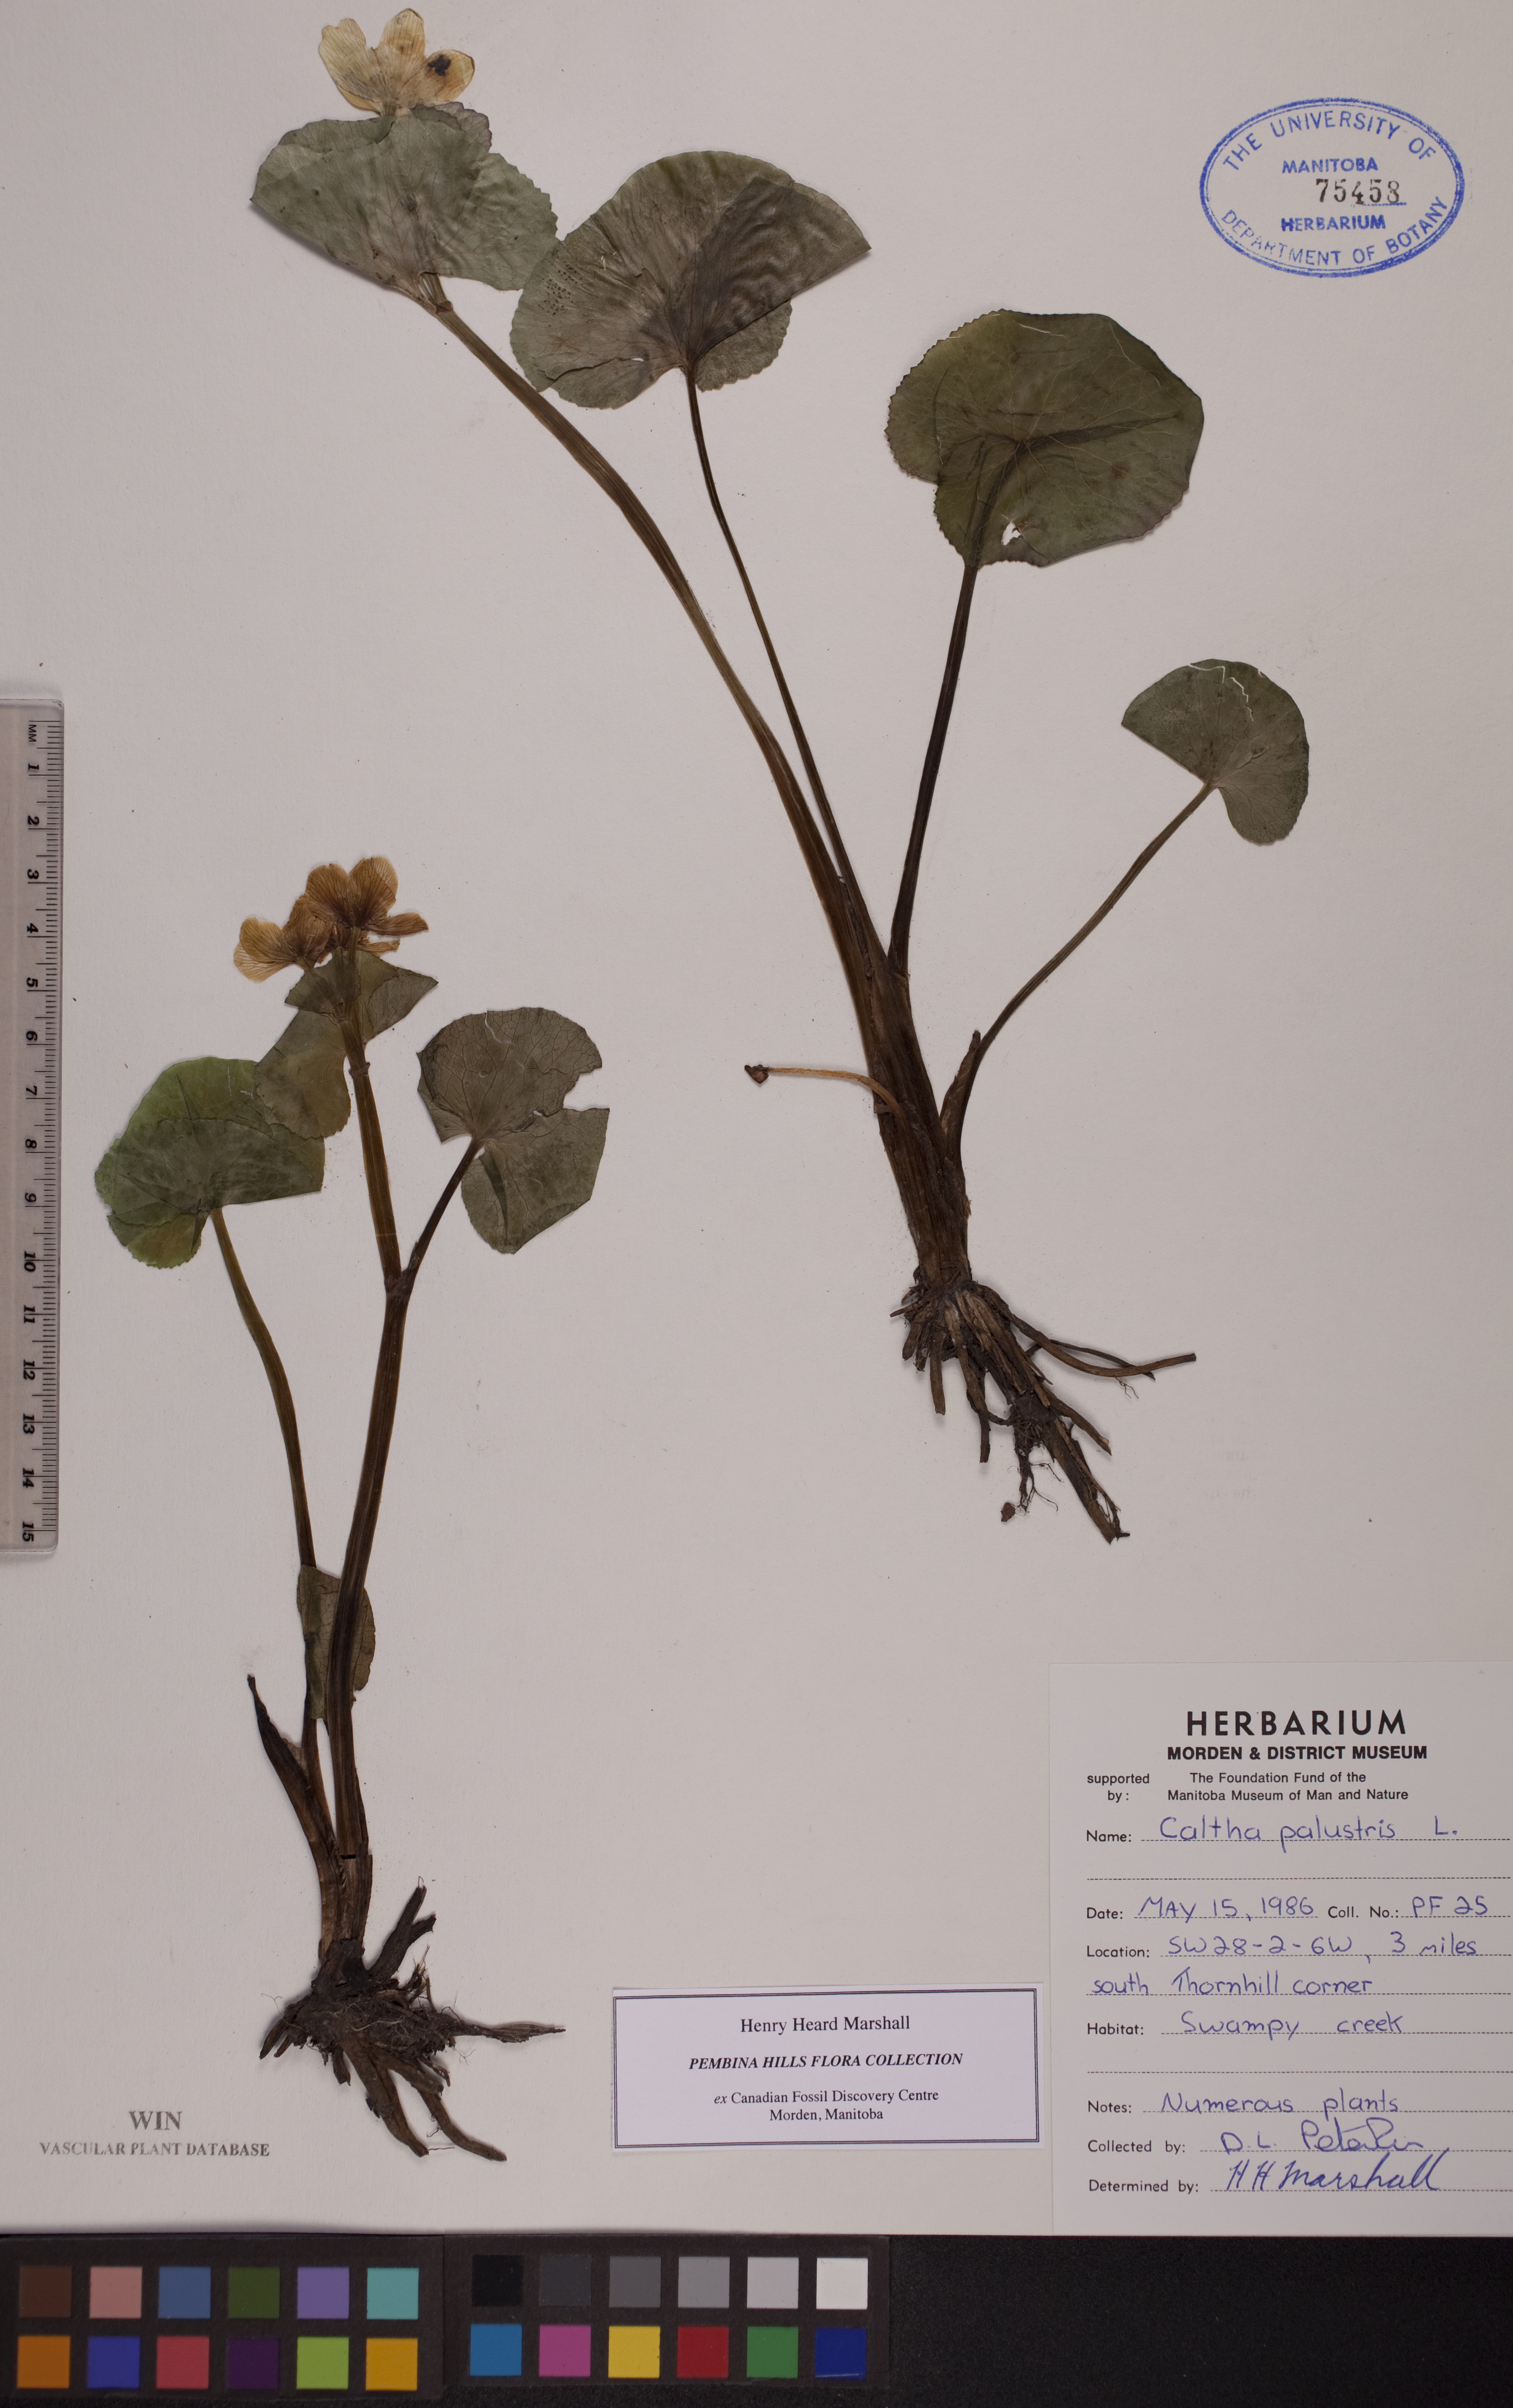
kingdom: Plantae
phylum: Tracheophyta
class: Magnoliopsida
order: Ranunculales
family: Ranunculaceae
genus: Caltha
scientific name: Caltha palustris
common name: Marsh marigold
